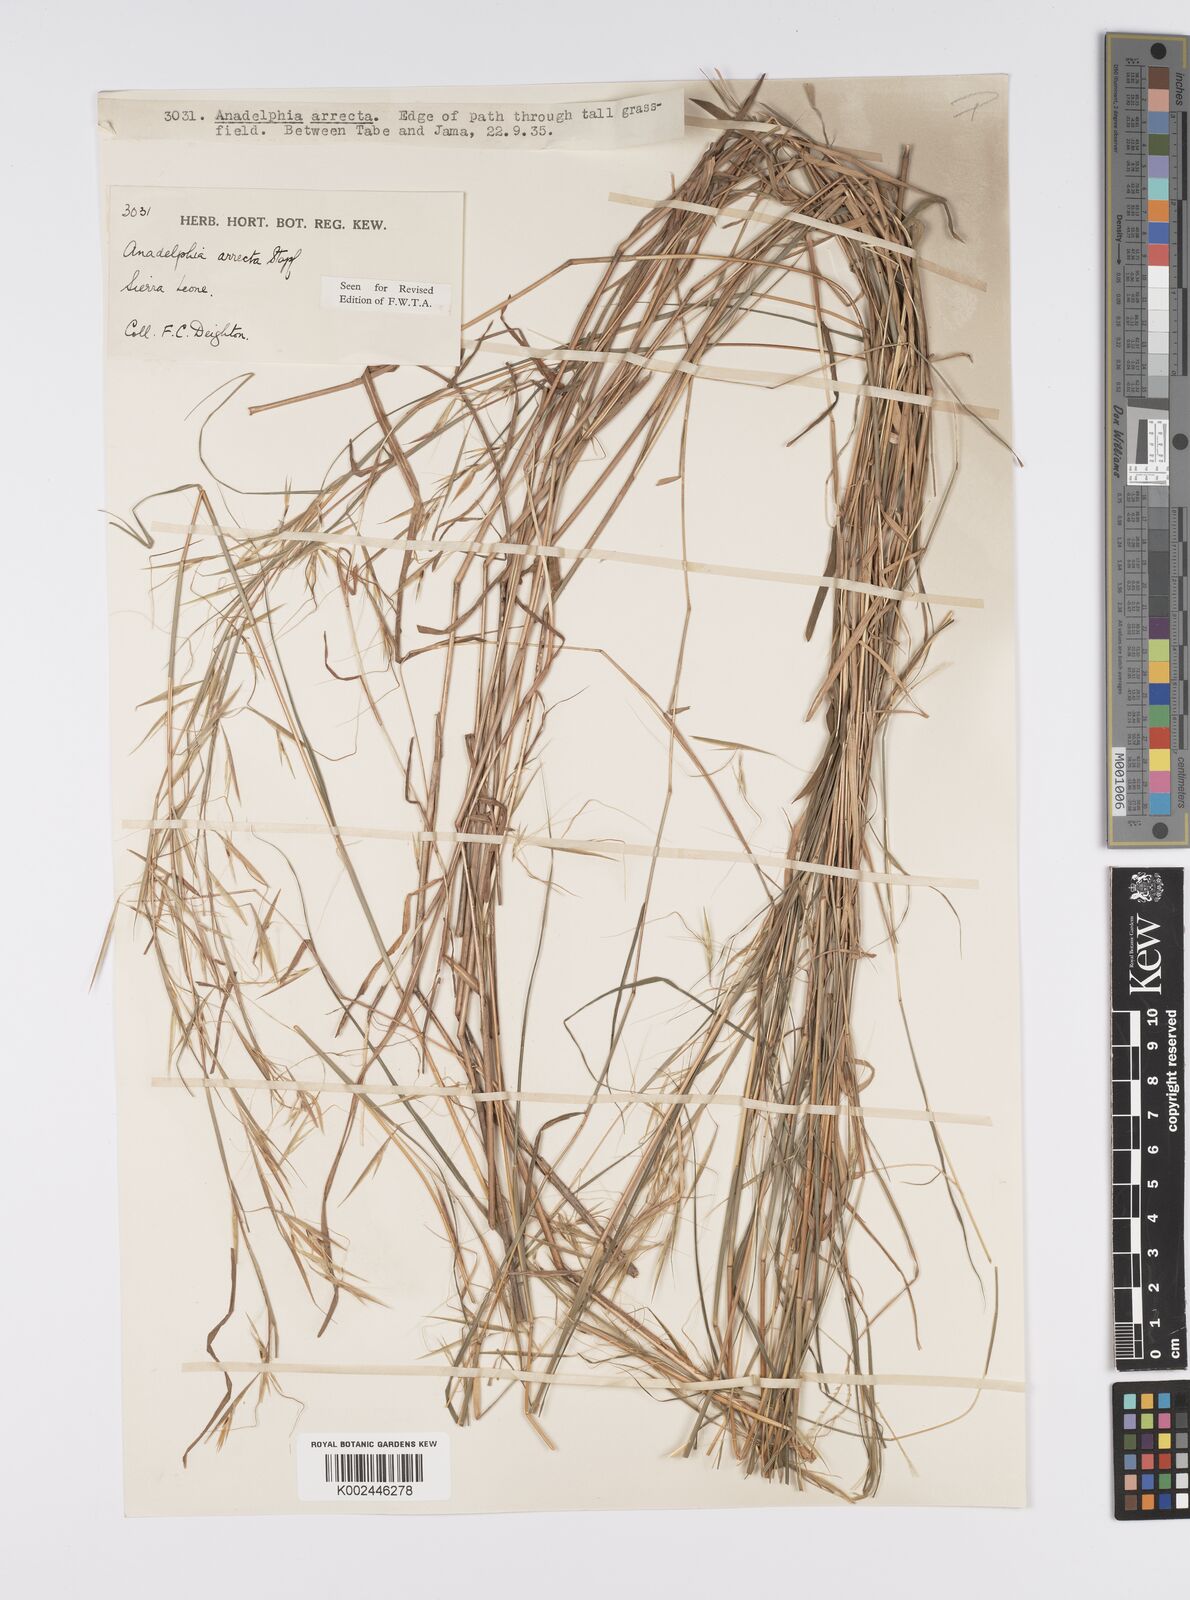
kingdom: Plantae
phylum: Tracheophyta
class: Liliopsida
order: Poales
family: Poaceae
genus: Anadelphia
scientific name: Anadelphia afzeliana
